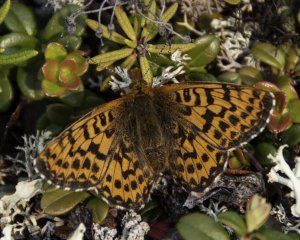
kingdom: Animalia
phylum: Arthropoda
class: Insecta
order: Lepidoptera
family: Nymphalidae
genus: Boloria
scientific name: Boloria chariclea
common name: Arctic Fritillary
